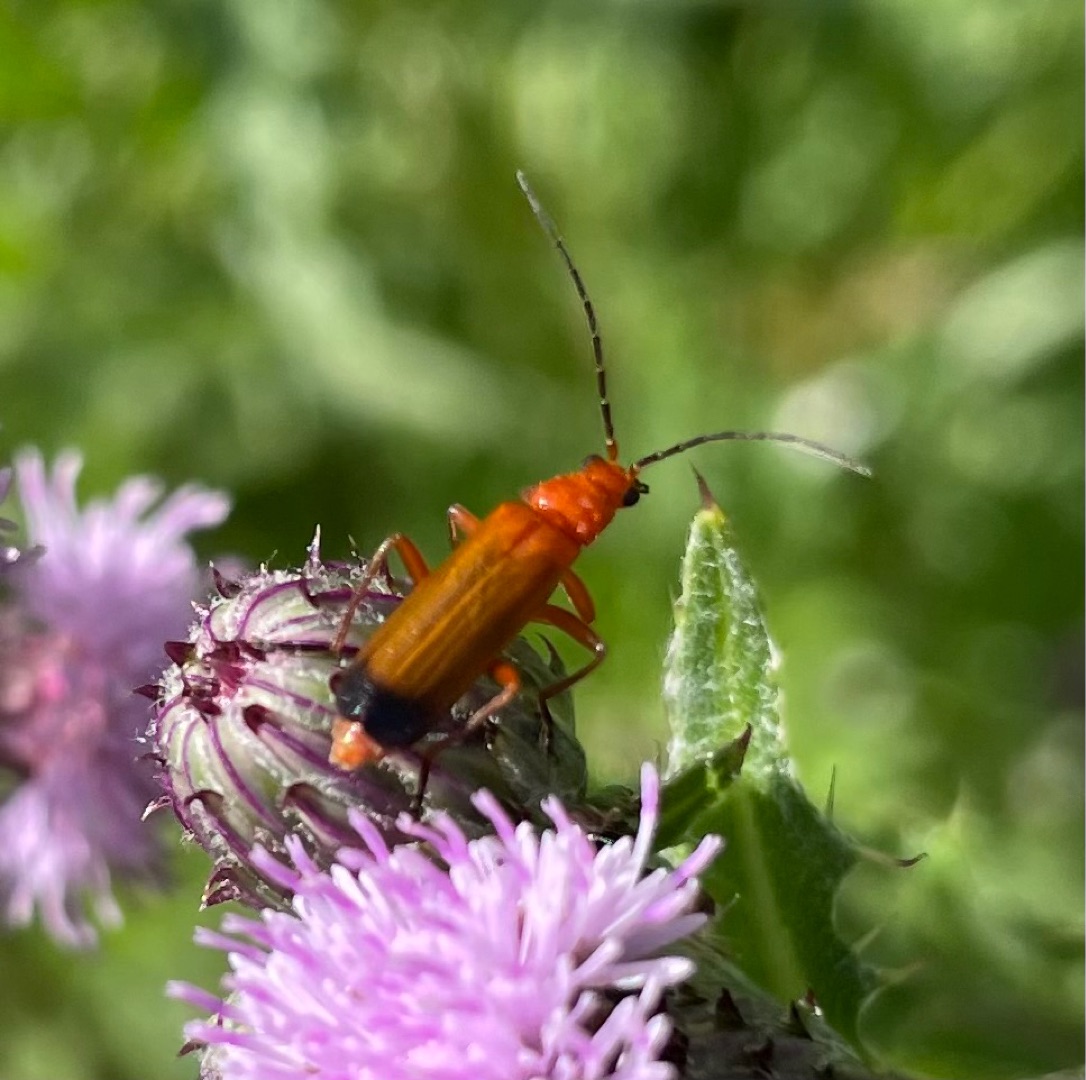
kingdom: Animalia
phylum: Arthropoda
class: Insecta
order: Coleoptera
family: Cantharidae
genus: Rhagonycha
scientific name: Rhagonycha fulva
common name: Præstebille
